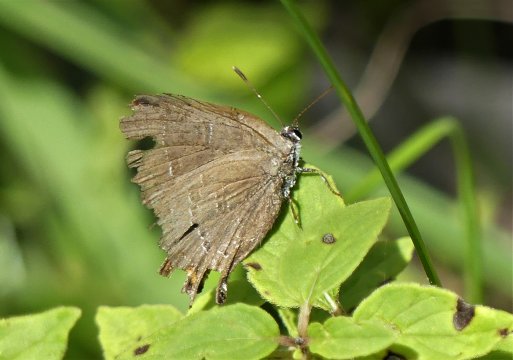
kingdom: Animalia
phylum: Arthropoda
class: Insecta
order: Lepidoptera
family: Lycaenidae
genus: Satyrium
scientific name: Satyrium
